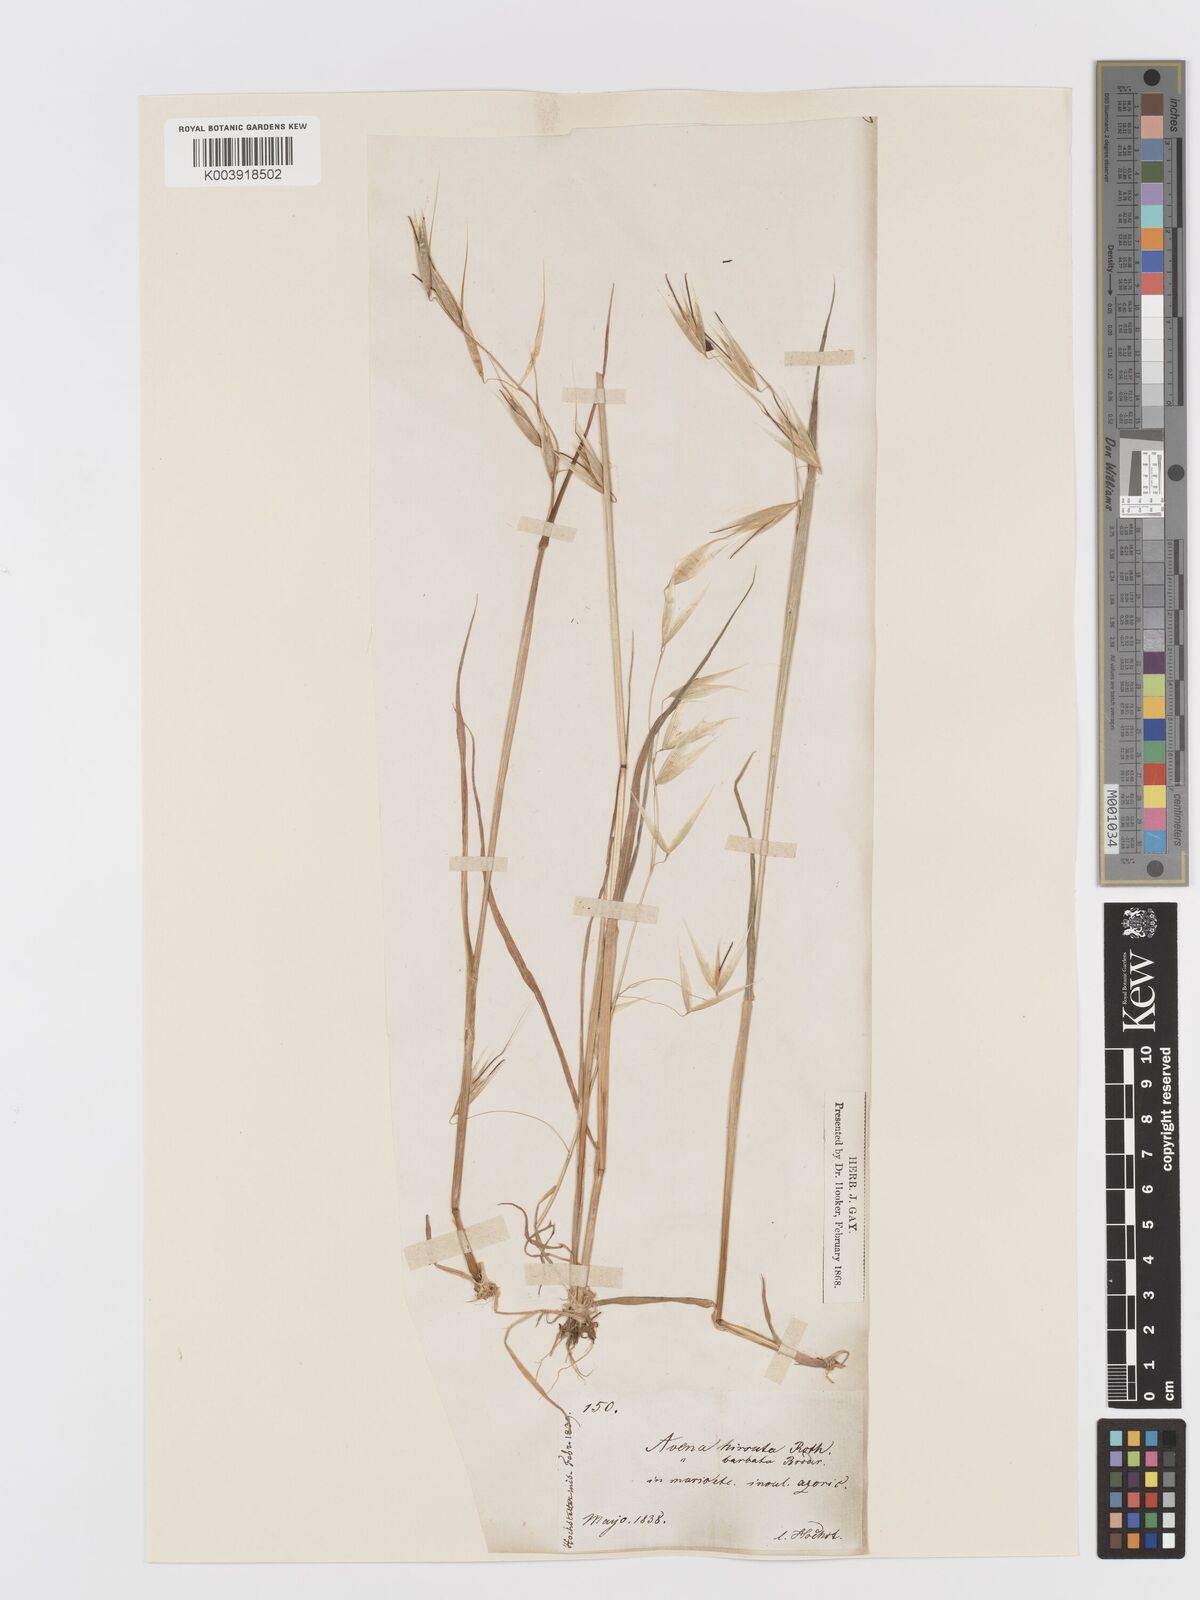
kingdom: Plantae
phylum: Tracheophyta
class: Liliopsida
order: Poales
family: Poaceae
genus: Avena
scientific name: Avena
